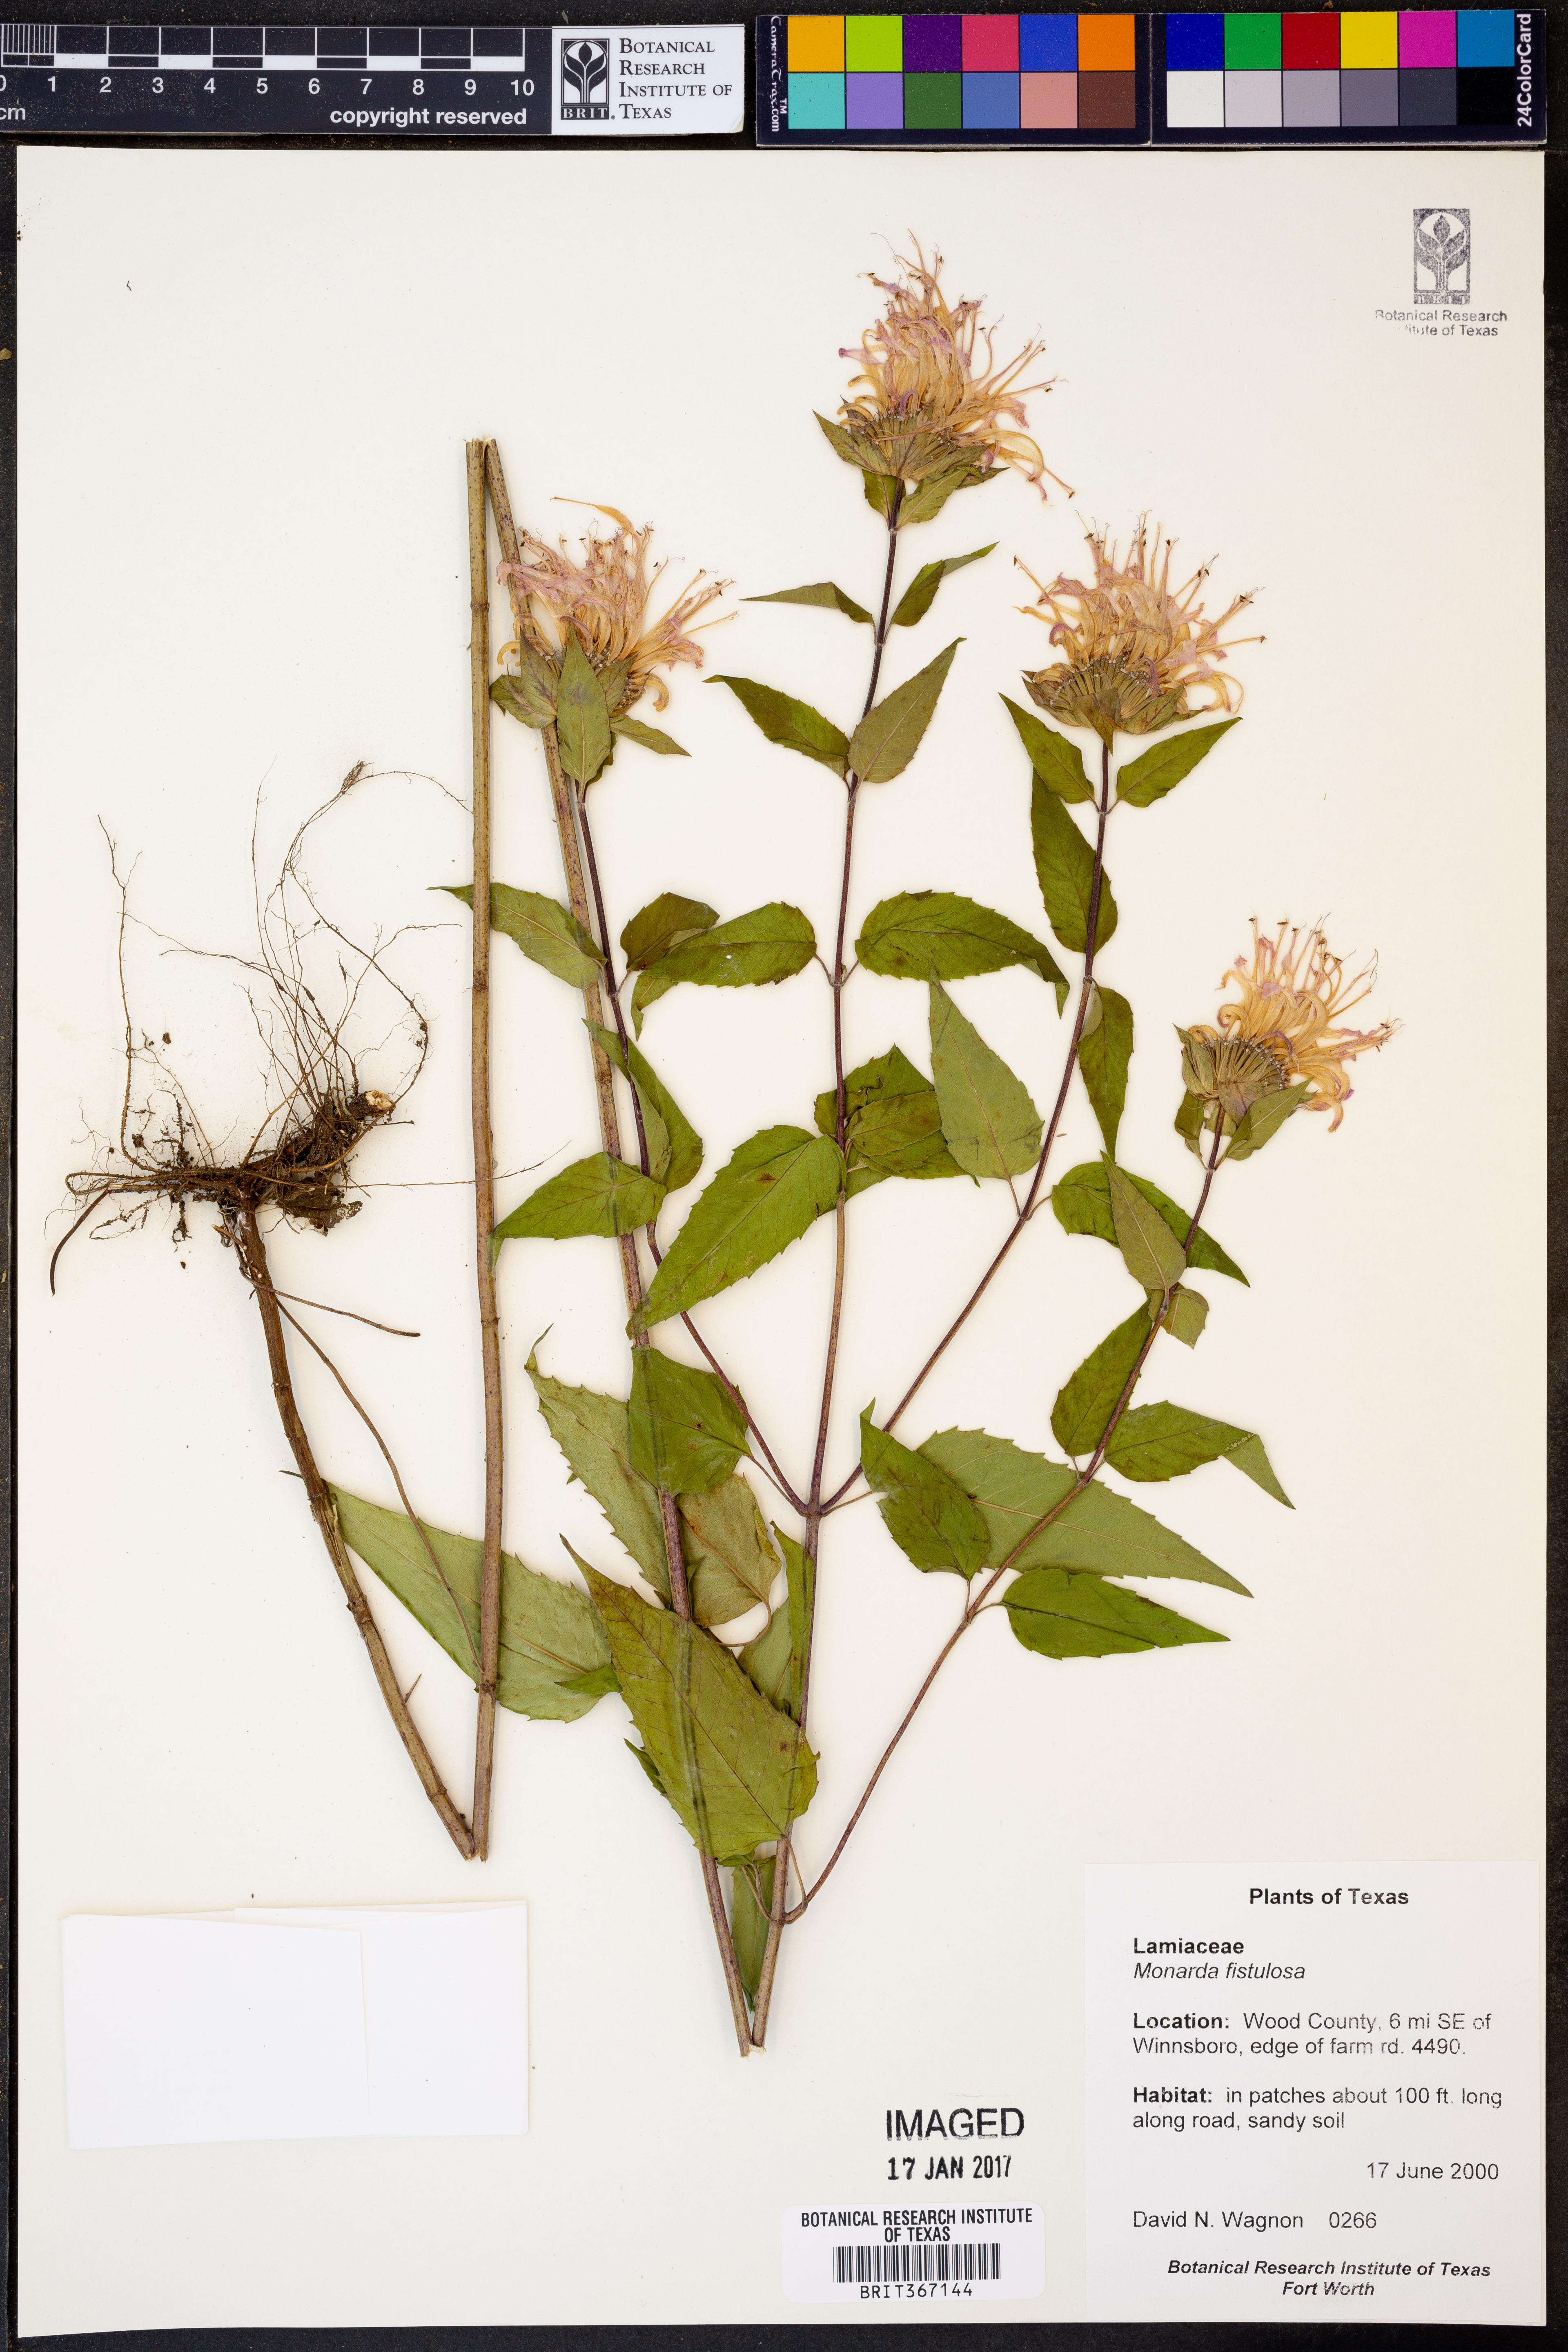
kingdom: Plantae
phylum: Tracheophyta
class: Magnoliopsida
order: Lamiales
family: Lamiaceae
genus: Monarda
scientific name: Monarda fistulosa
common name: Purple beebalm
